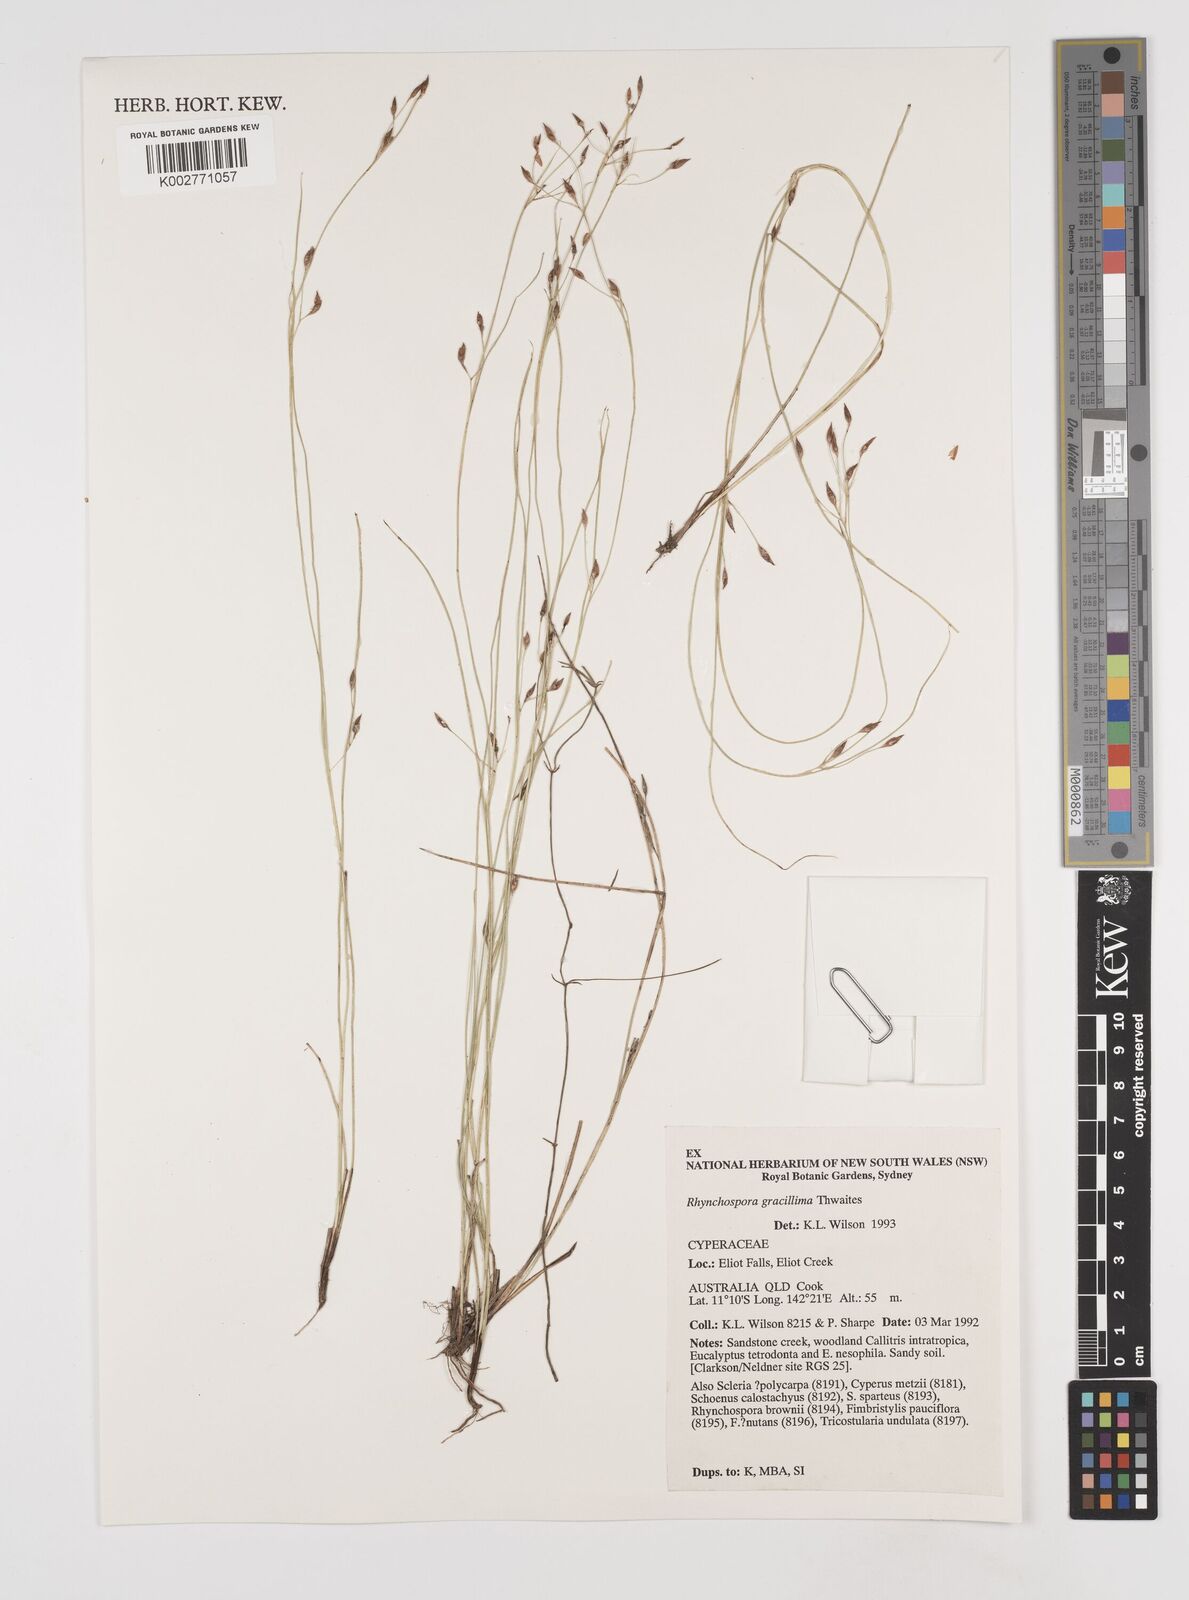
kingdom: Plantae
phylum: Tracheophyta
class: Liliopsida
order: Poales
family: Cyperaceae
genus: Rhynchospora
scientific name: Rhynchospora gracillima
